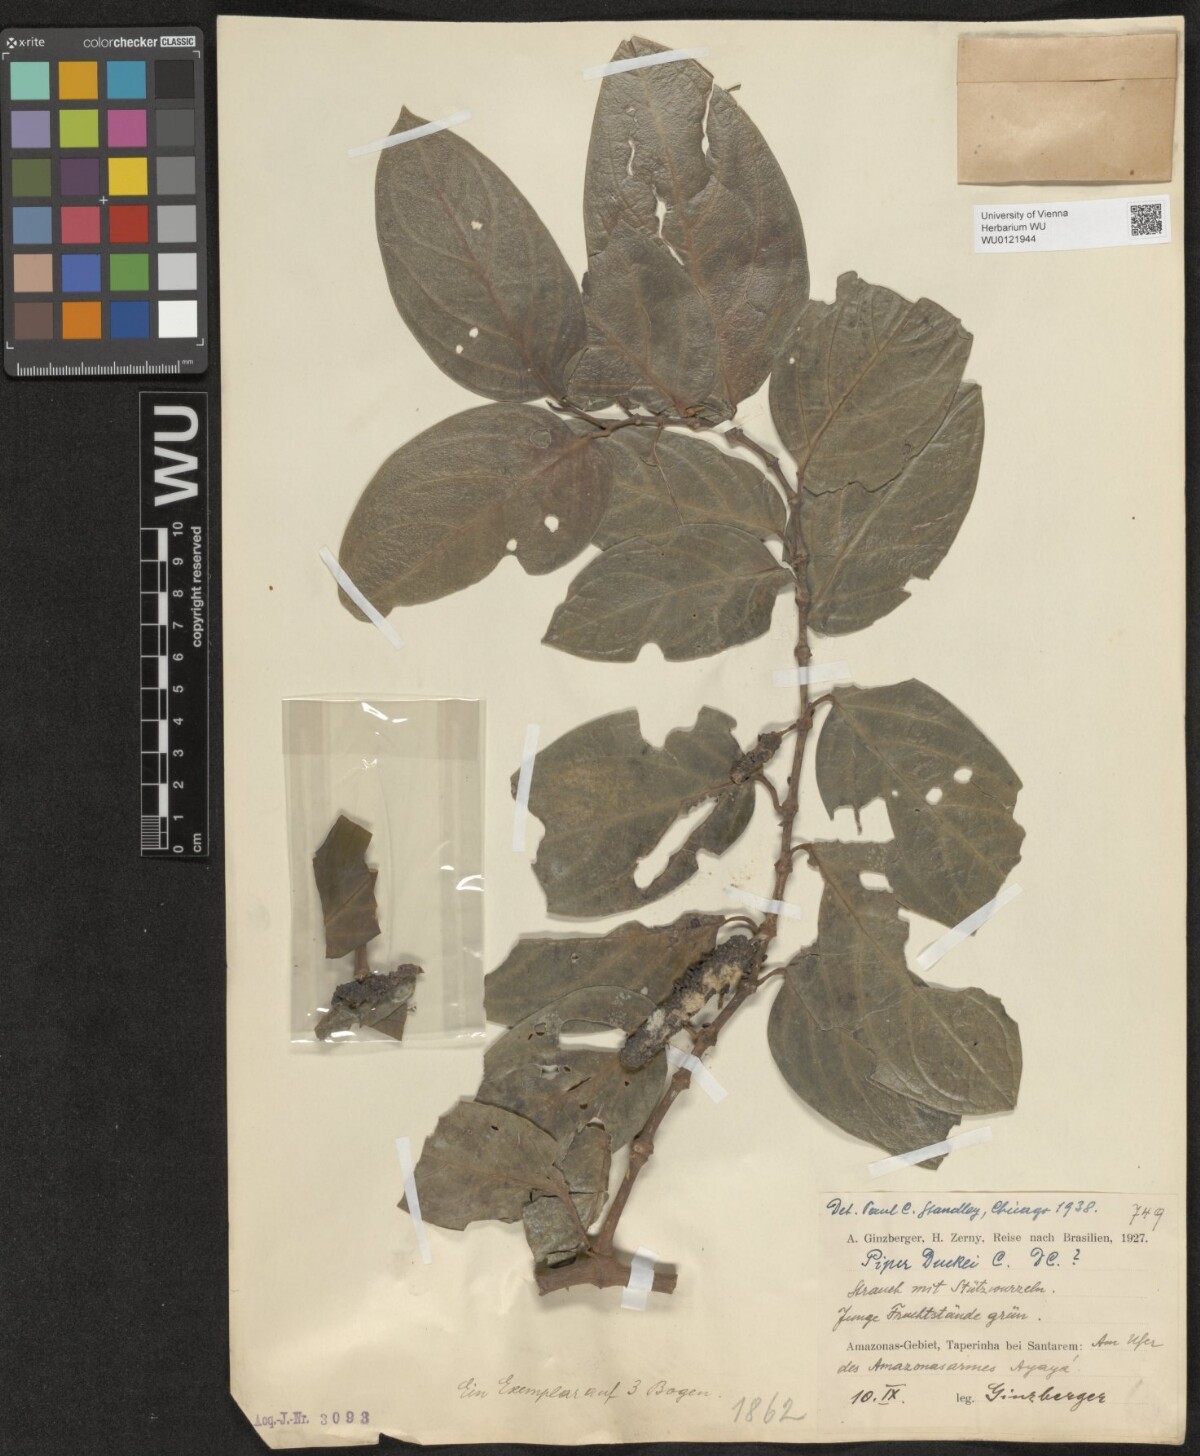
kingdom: Plantae
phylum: Tracheophyta
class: Magnoliopsida
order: Piperales
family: Piperaceae
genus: Piper
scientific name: Piper duckei
